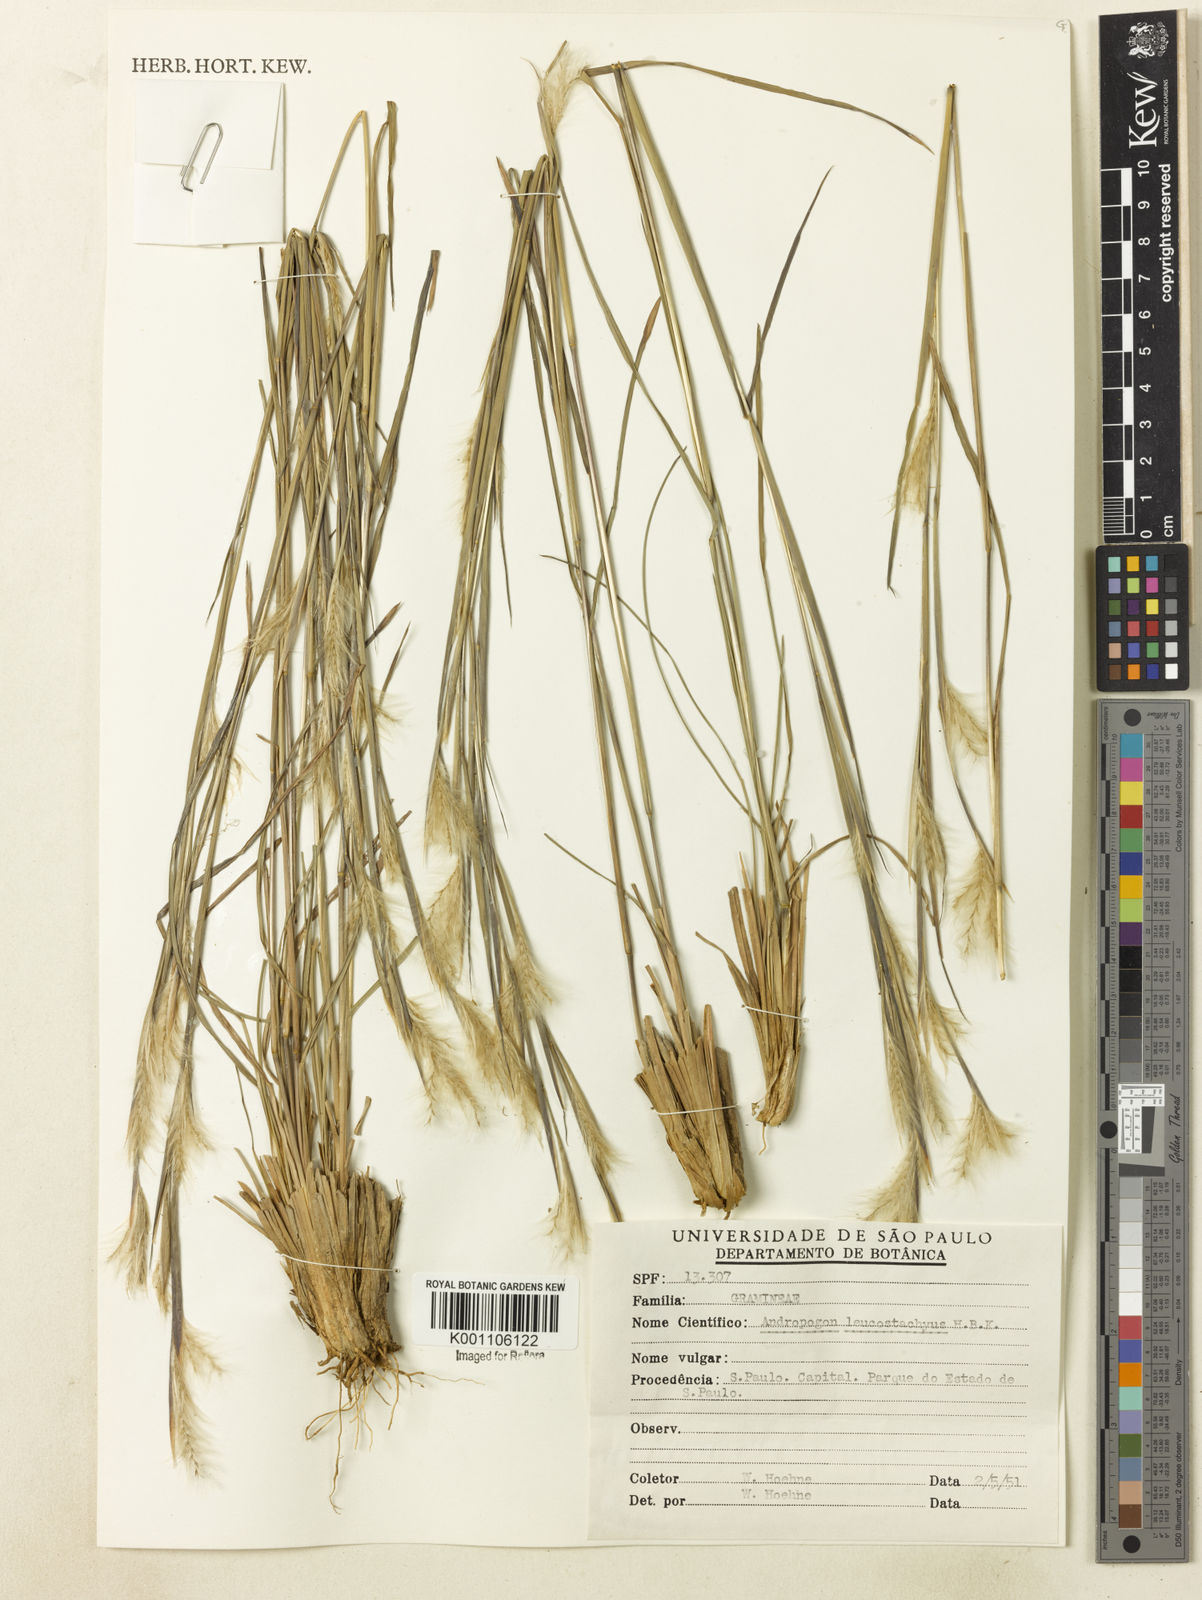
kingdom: Plantae
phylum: Tracheophyta
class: Liliopsida
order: Poales
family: Poaceae
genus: Andropogon
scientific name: Andropogon leucostachyus
